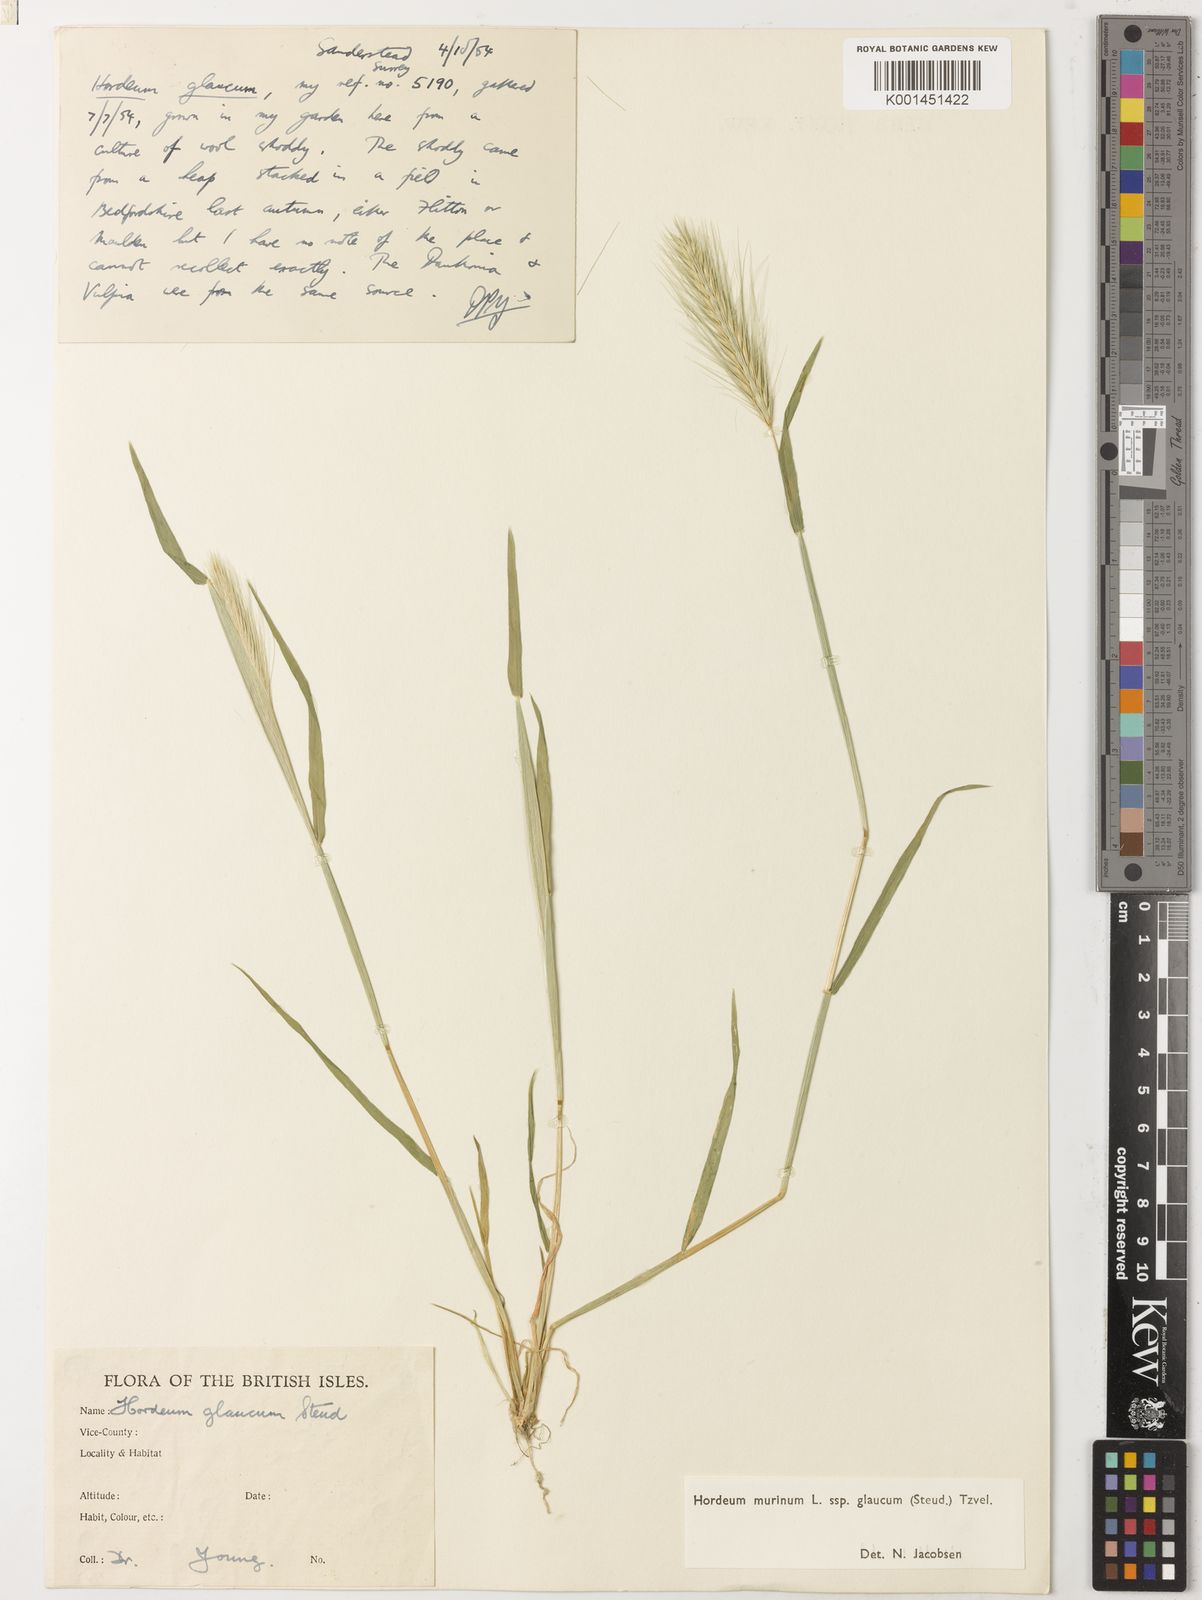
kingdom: Plantae
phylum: Tracheophyta
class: Liliopsida
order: Poales
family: Poaceae
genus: Hordeum
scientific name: Hordeum murinum
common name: Wall barley
